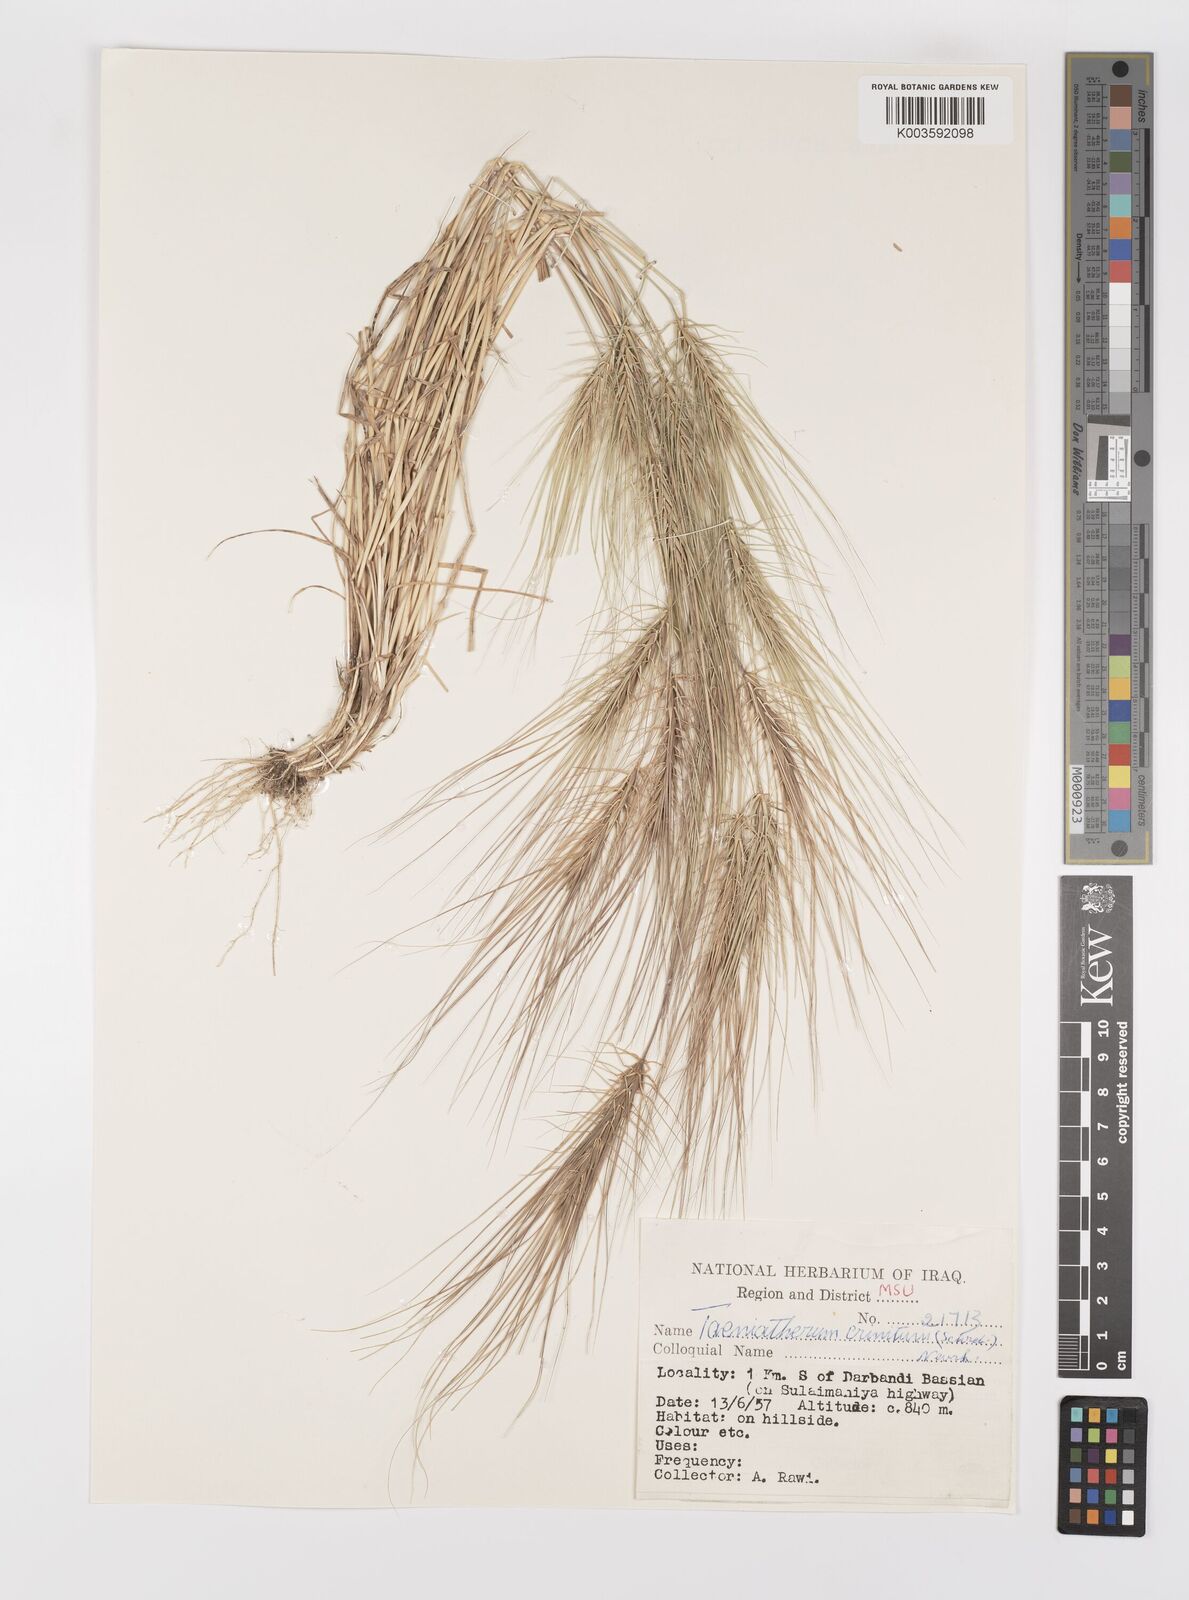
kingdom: Plantae
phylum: Tracheophyta
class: Liliopsida
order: Poales
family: Poaceae
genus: Taeniatherum
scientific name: Taeniatherum caput-medusae
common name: Medusahead
